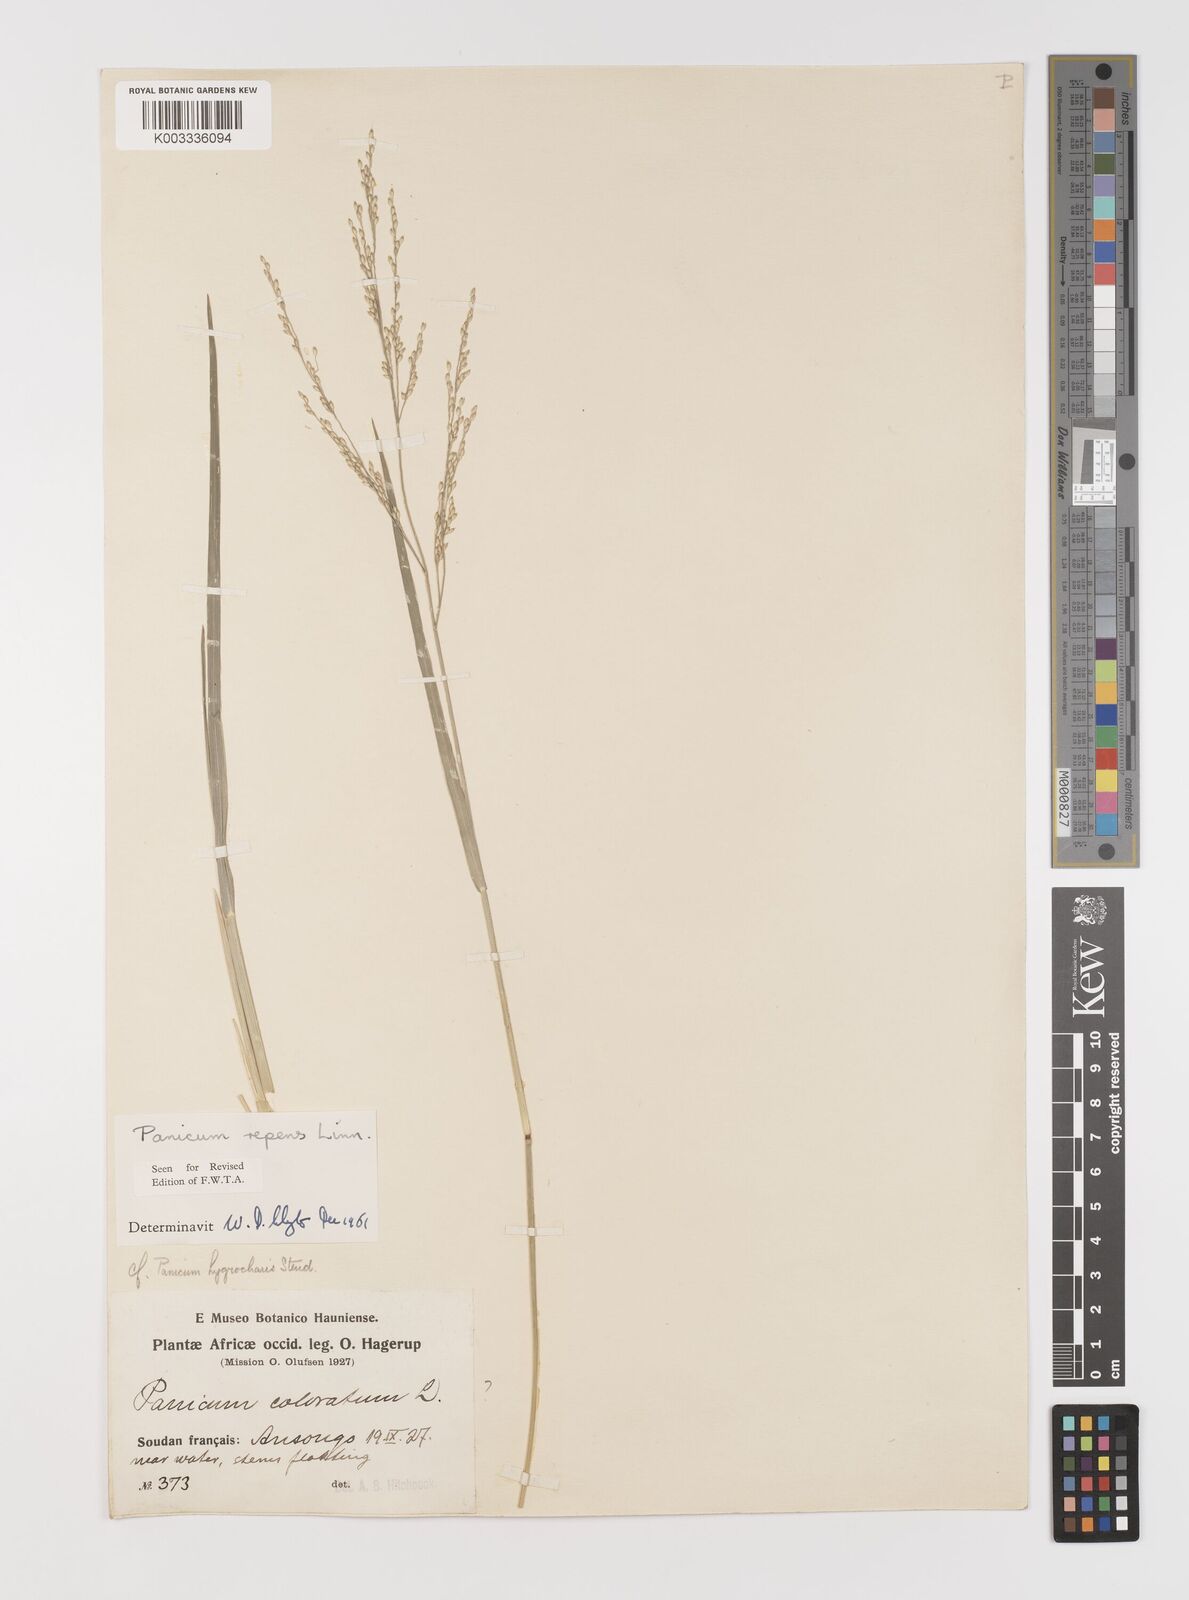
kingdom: Plantae
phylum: Tracheophyta
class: Liliopsida
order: Poales
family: Poaceae
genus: Panicum
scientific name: Panicum repens
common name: Torpedo grass
